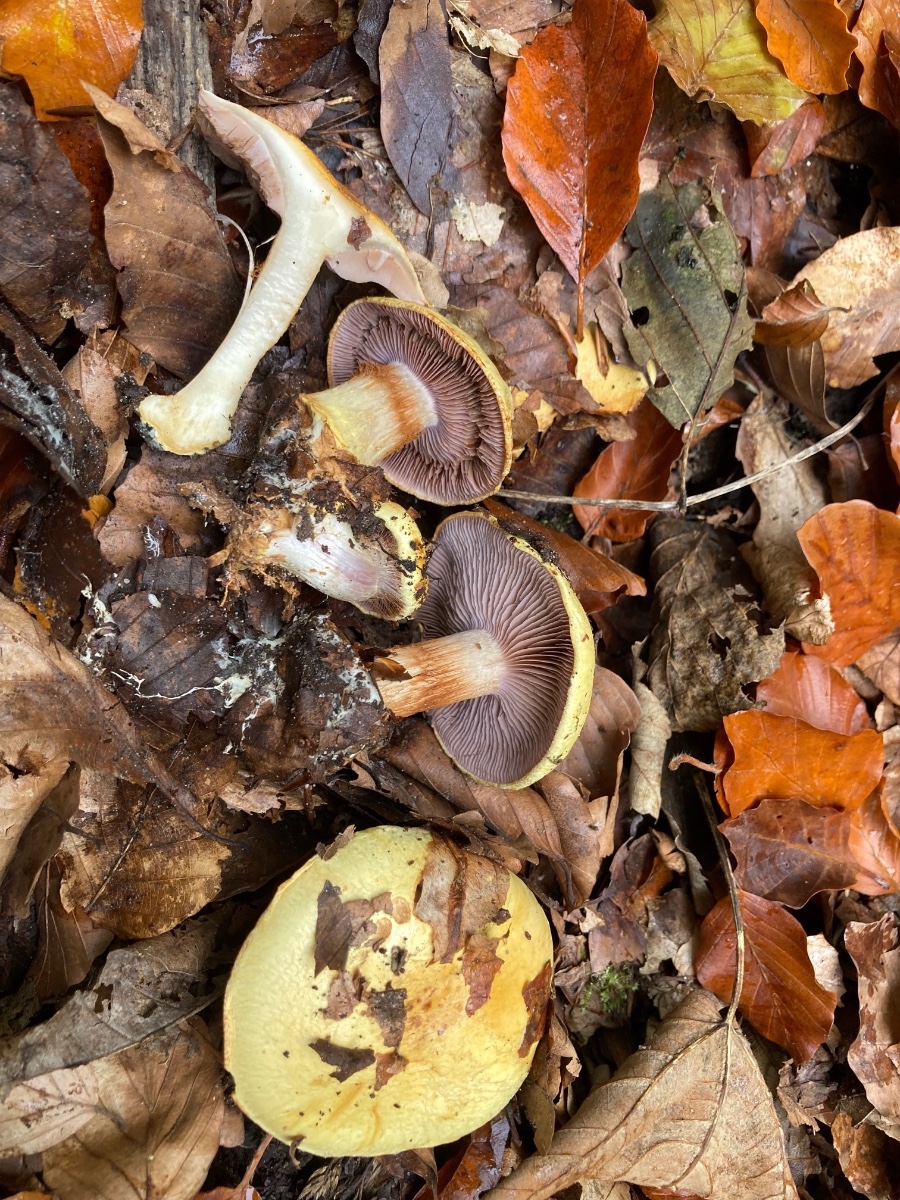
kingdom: Fungi
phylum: Basidiomycota
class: Agaricomycetes
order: Agaricales
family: Cortinariaceae
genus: Calonarius
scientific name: Calonarius callochrous
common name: lillabladet slørhat
